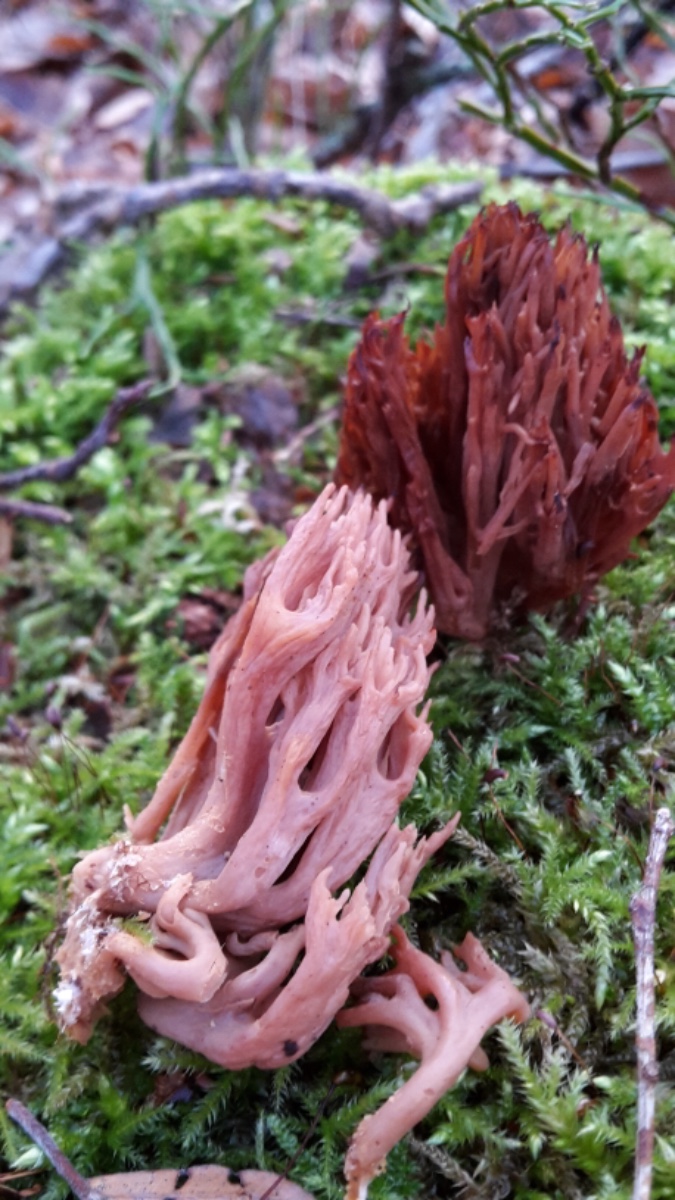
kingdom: Fungi
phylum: Basidiomycota
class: Agaricomycetes
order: Gomphales
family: Gomphaceae
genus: Ramaria
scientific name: Ramaria stricta
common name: rank koralsvamp
